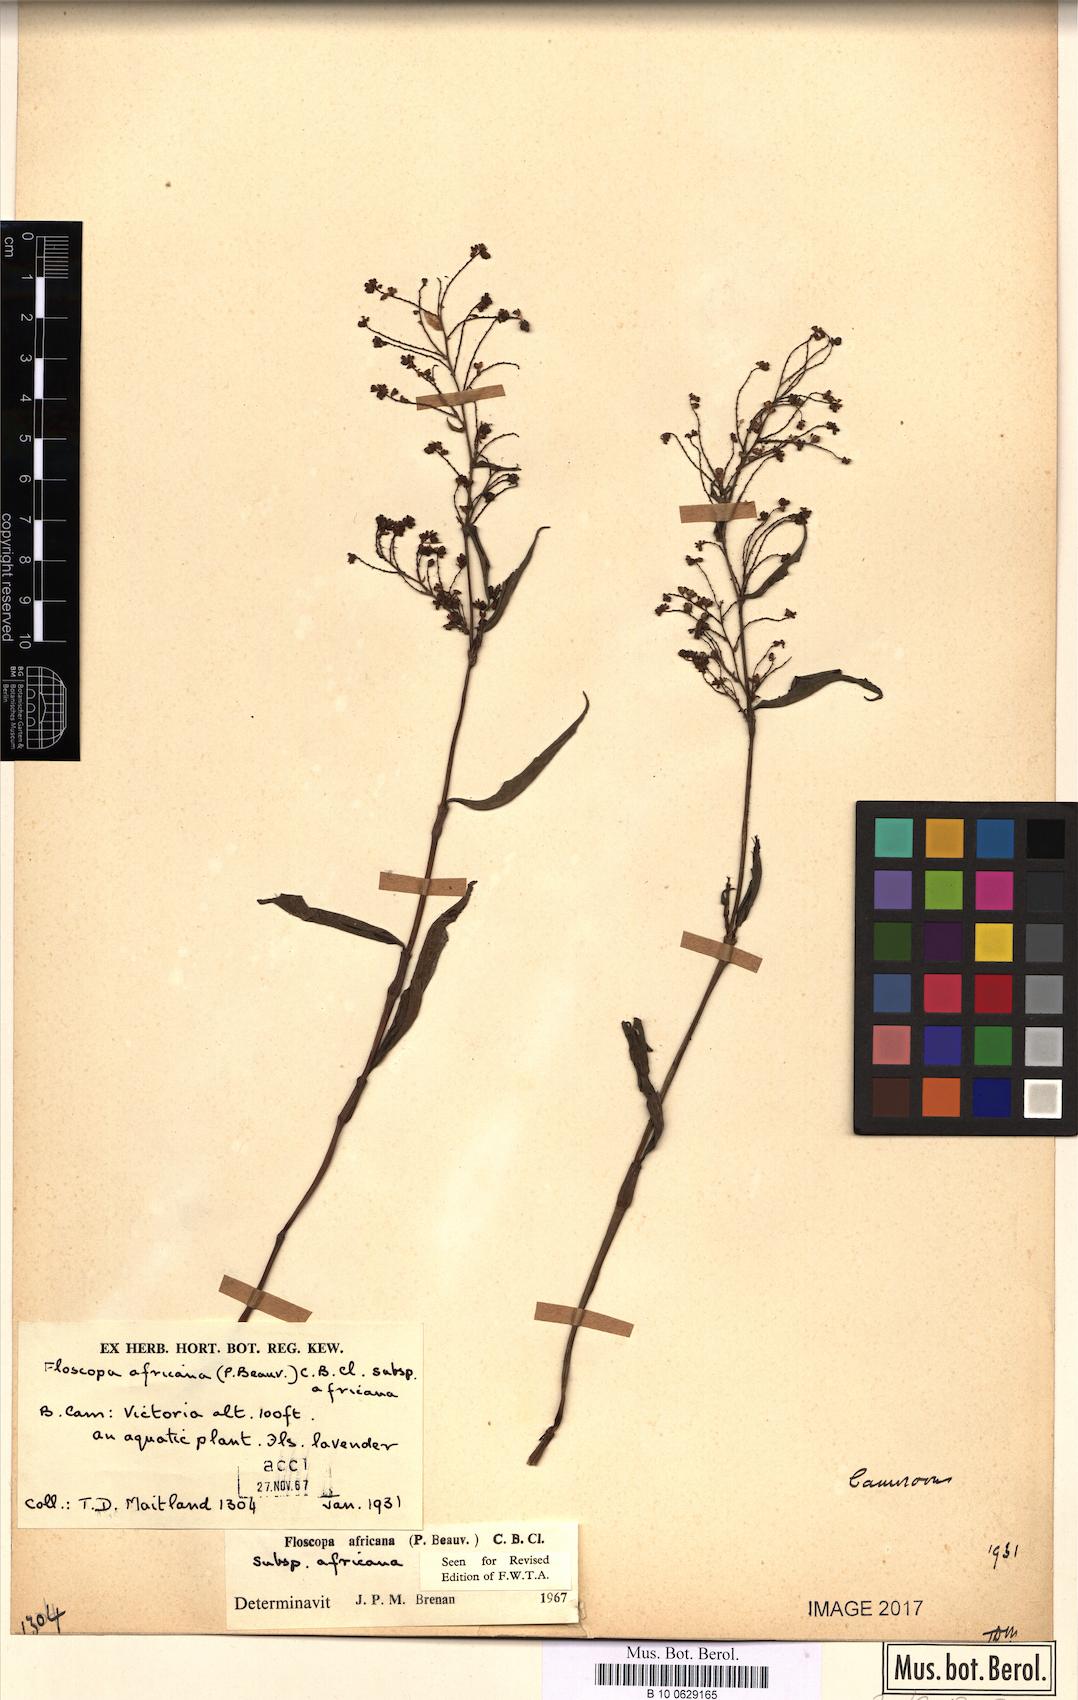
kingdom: Plantae
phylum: Tracheophyta
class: Liliopsida
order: Commelinales
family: Commelinaceae
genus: Floscopa
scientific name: Floscopa africana
